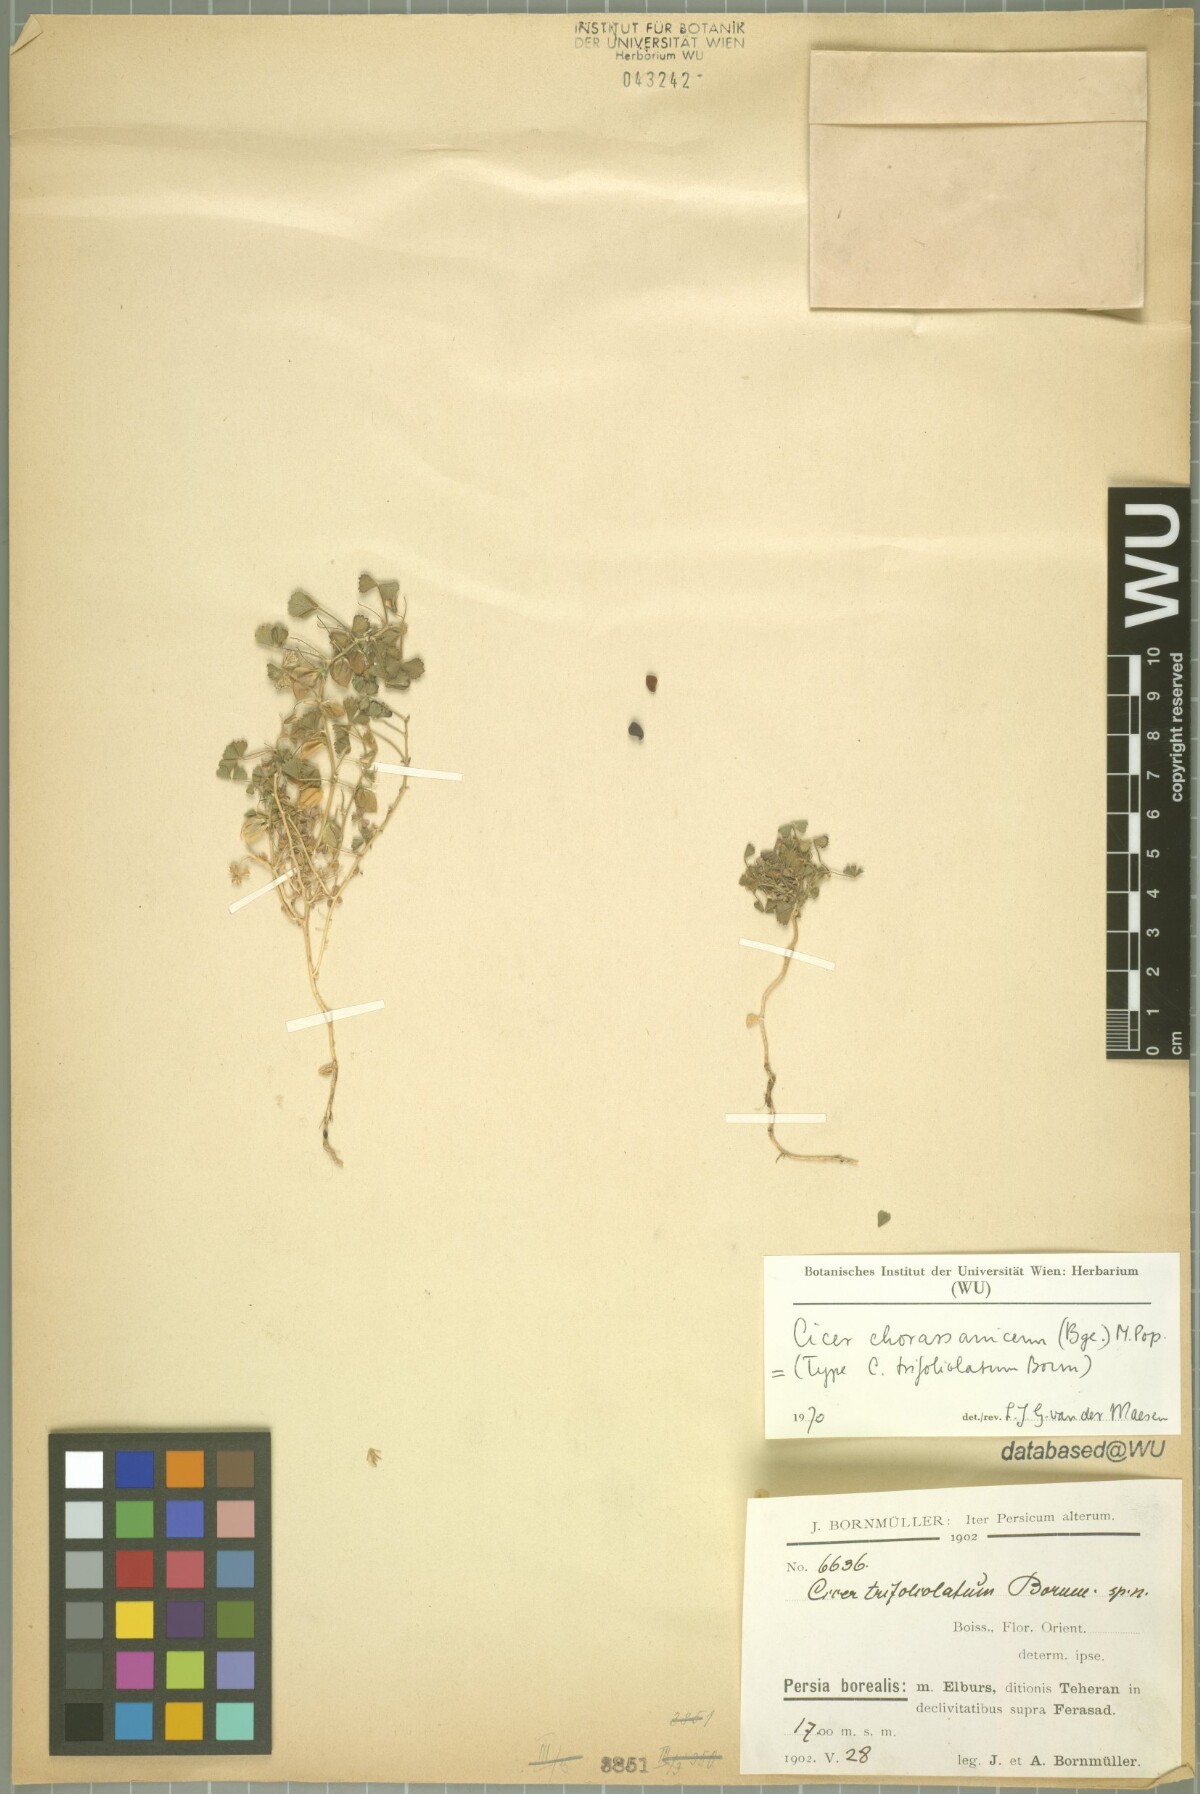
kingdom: Plantae
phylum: Tracheophyta
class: Magnoliopsida
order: Fabales
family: Fabaceae
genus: Cicer
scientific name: Cicer chorassanicum
